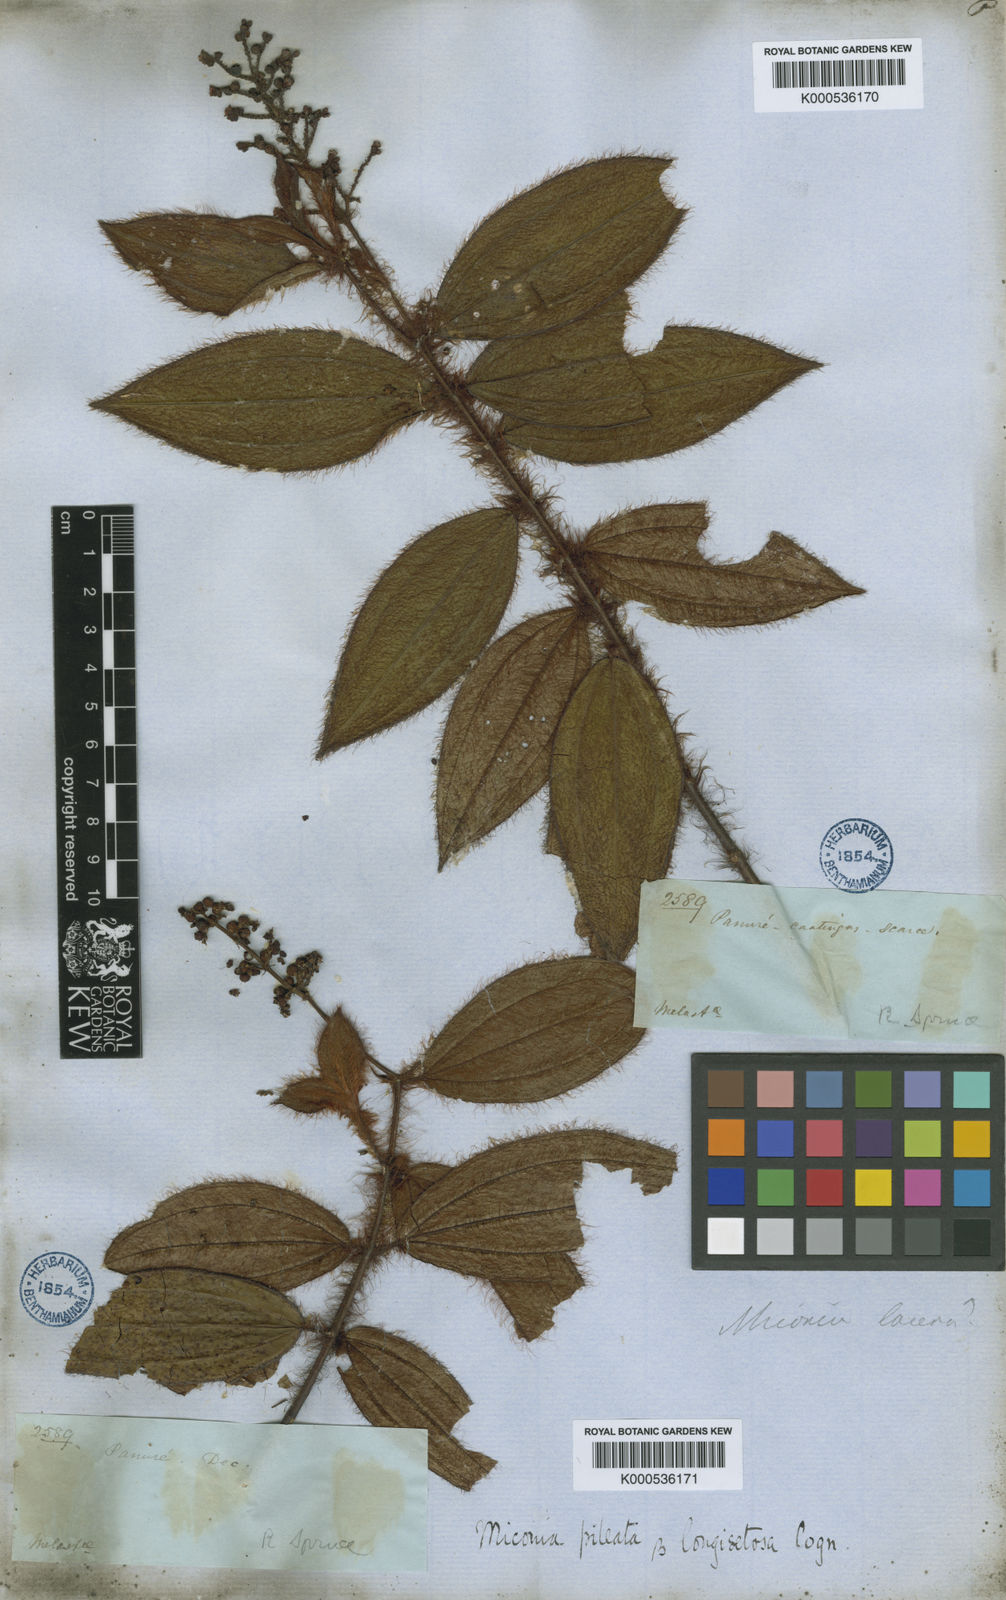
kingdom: Plantae
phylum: Tracheophyta
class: Magnoliopsida
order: Myrtales
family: Melastomataceae
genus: Miconia
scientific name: Miconia pileata
